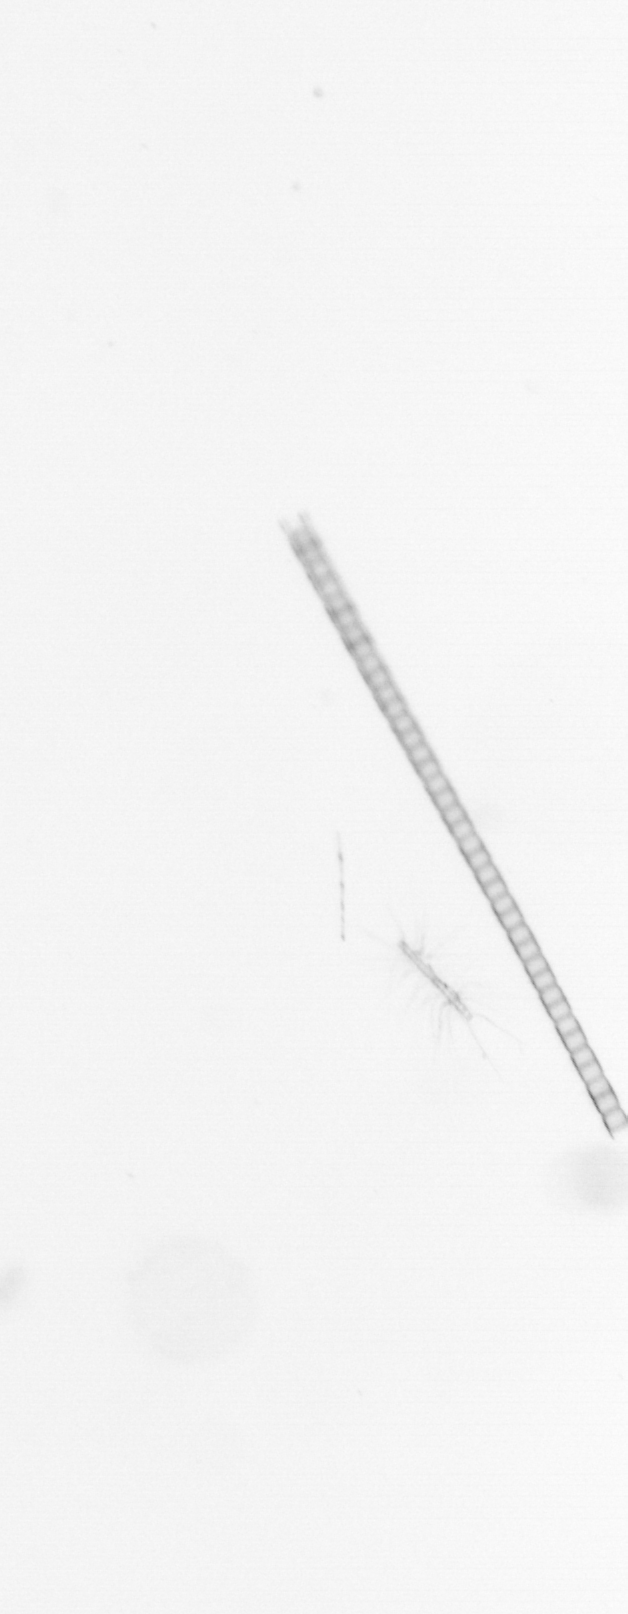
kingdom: Chromista
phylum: Ochrophyta
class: Bacillariophyceae
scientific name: Bacillariophyceae
